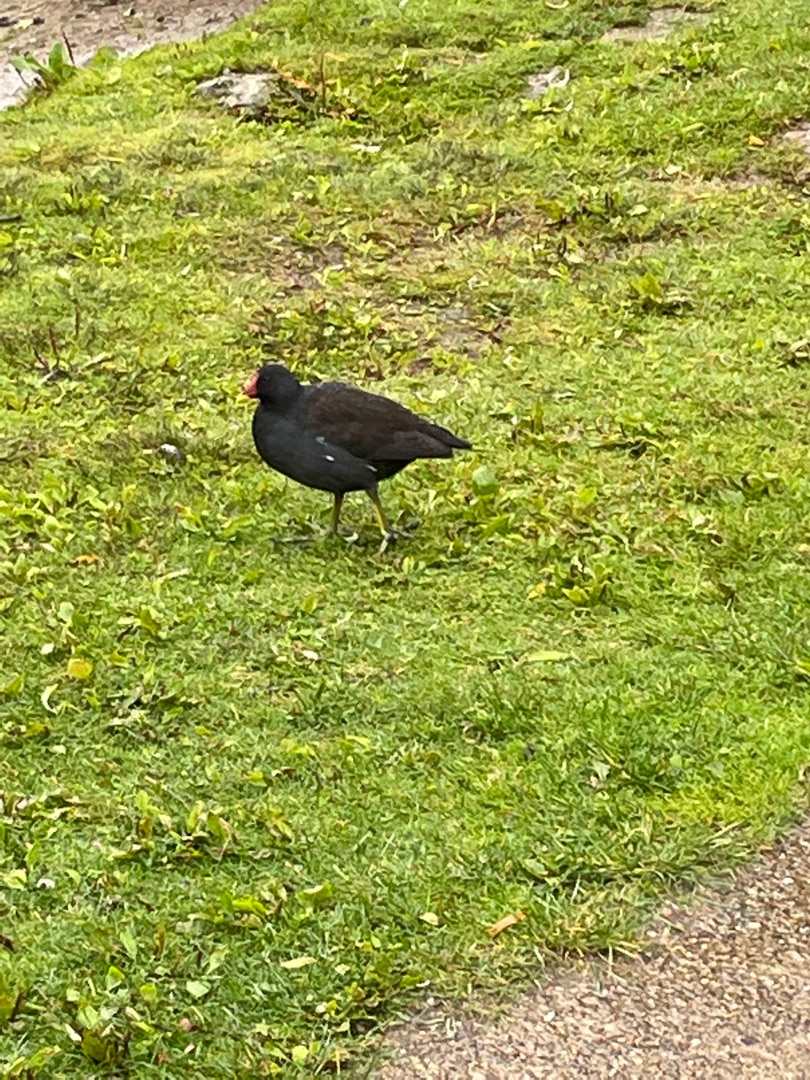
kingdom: Animalia
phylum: Chordata
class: Aves
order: Gruiformes
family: Rallidae
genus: Gallinula
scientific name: Gallinula chloropus
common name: Grønbenet rørhøne
